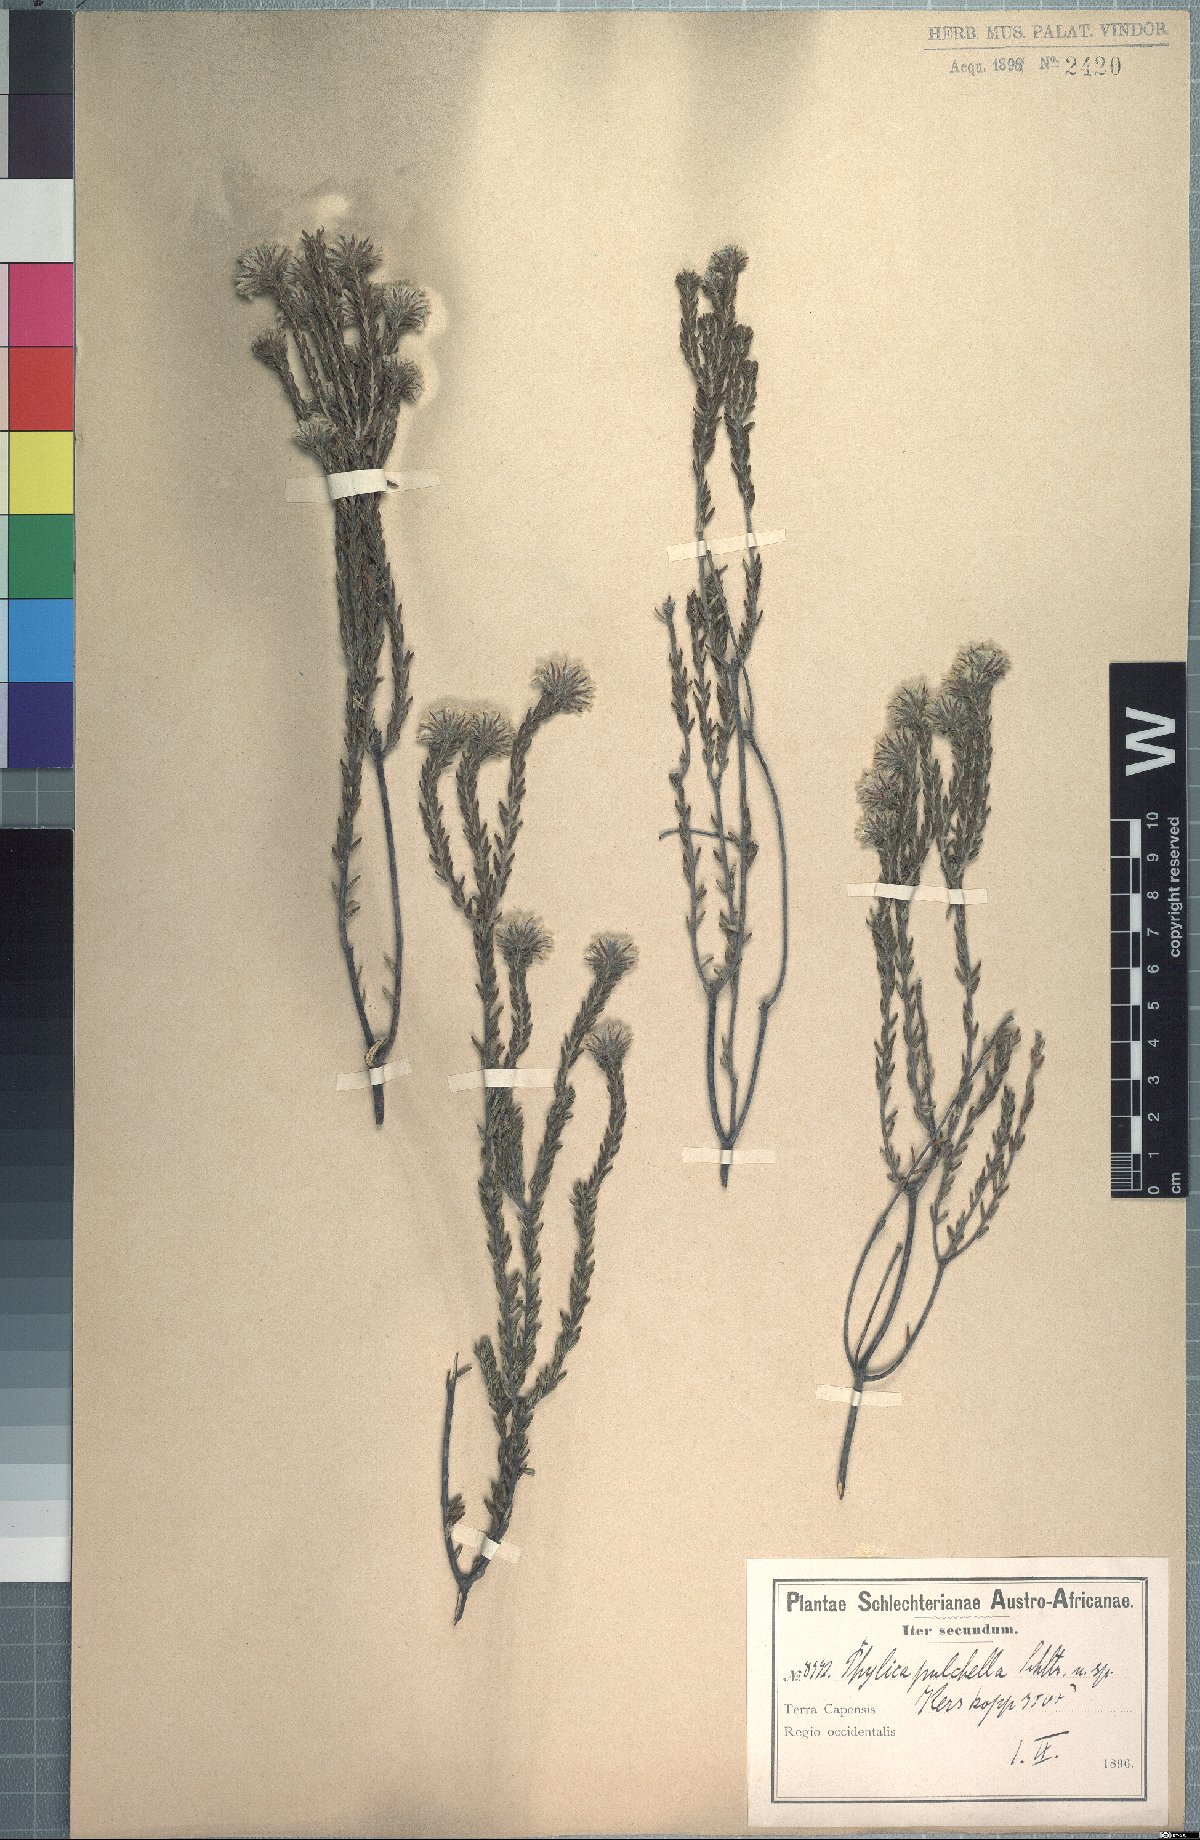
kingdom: Plantae
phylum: Tracheophyta
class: Magnoliopsida
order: Rosales
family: Rhamnaceae
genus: Phylica
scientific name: Phylica pulchella
